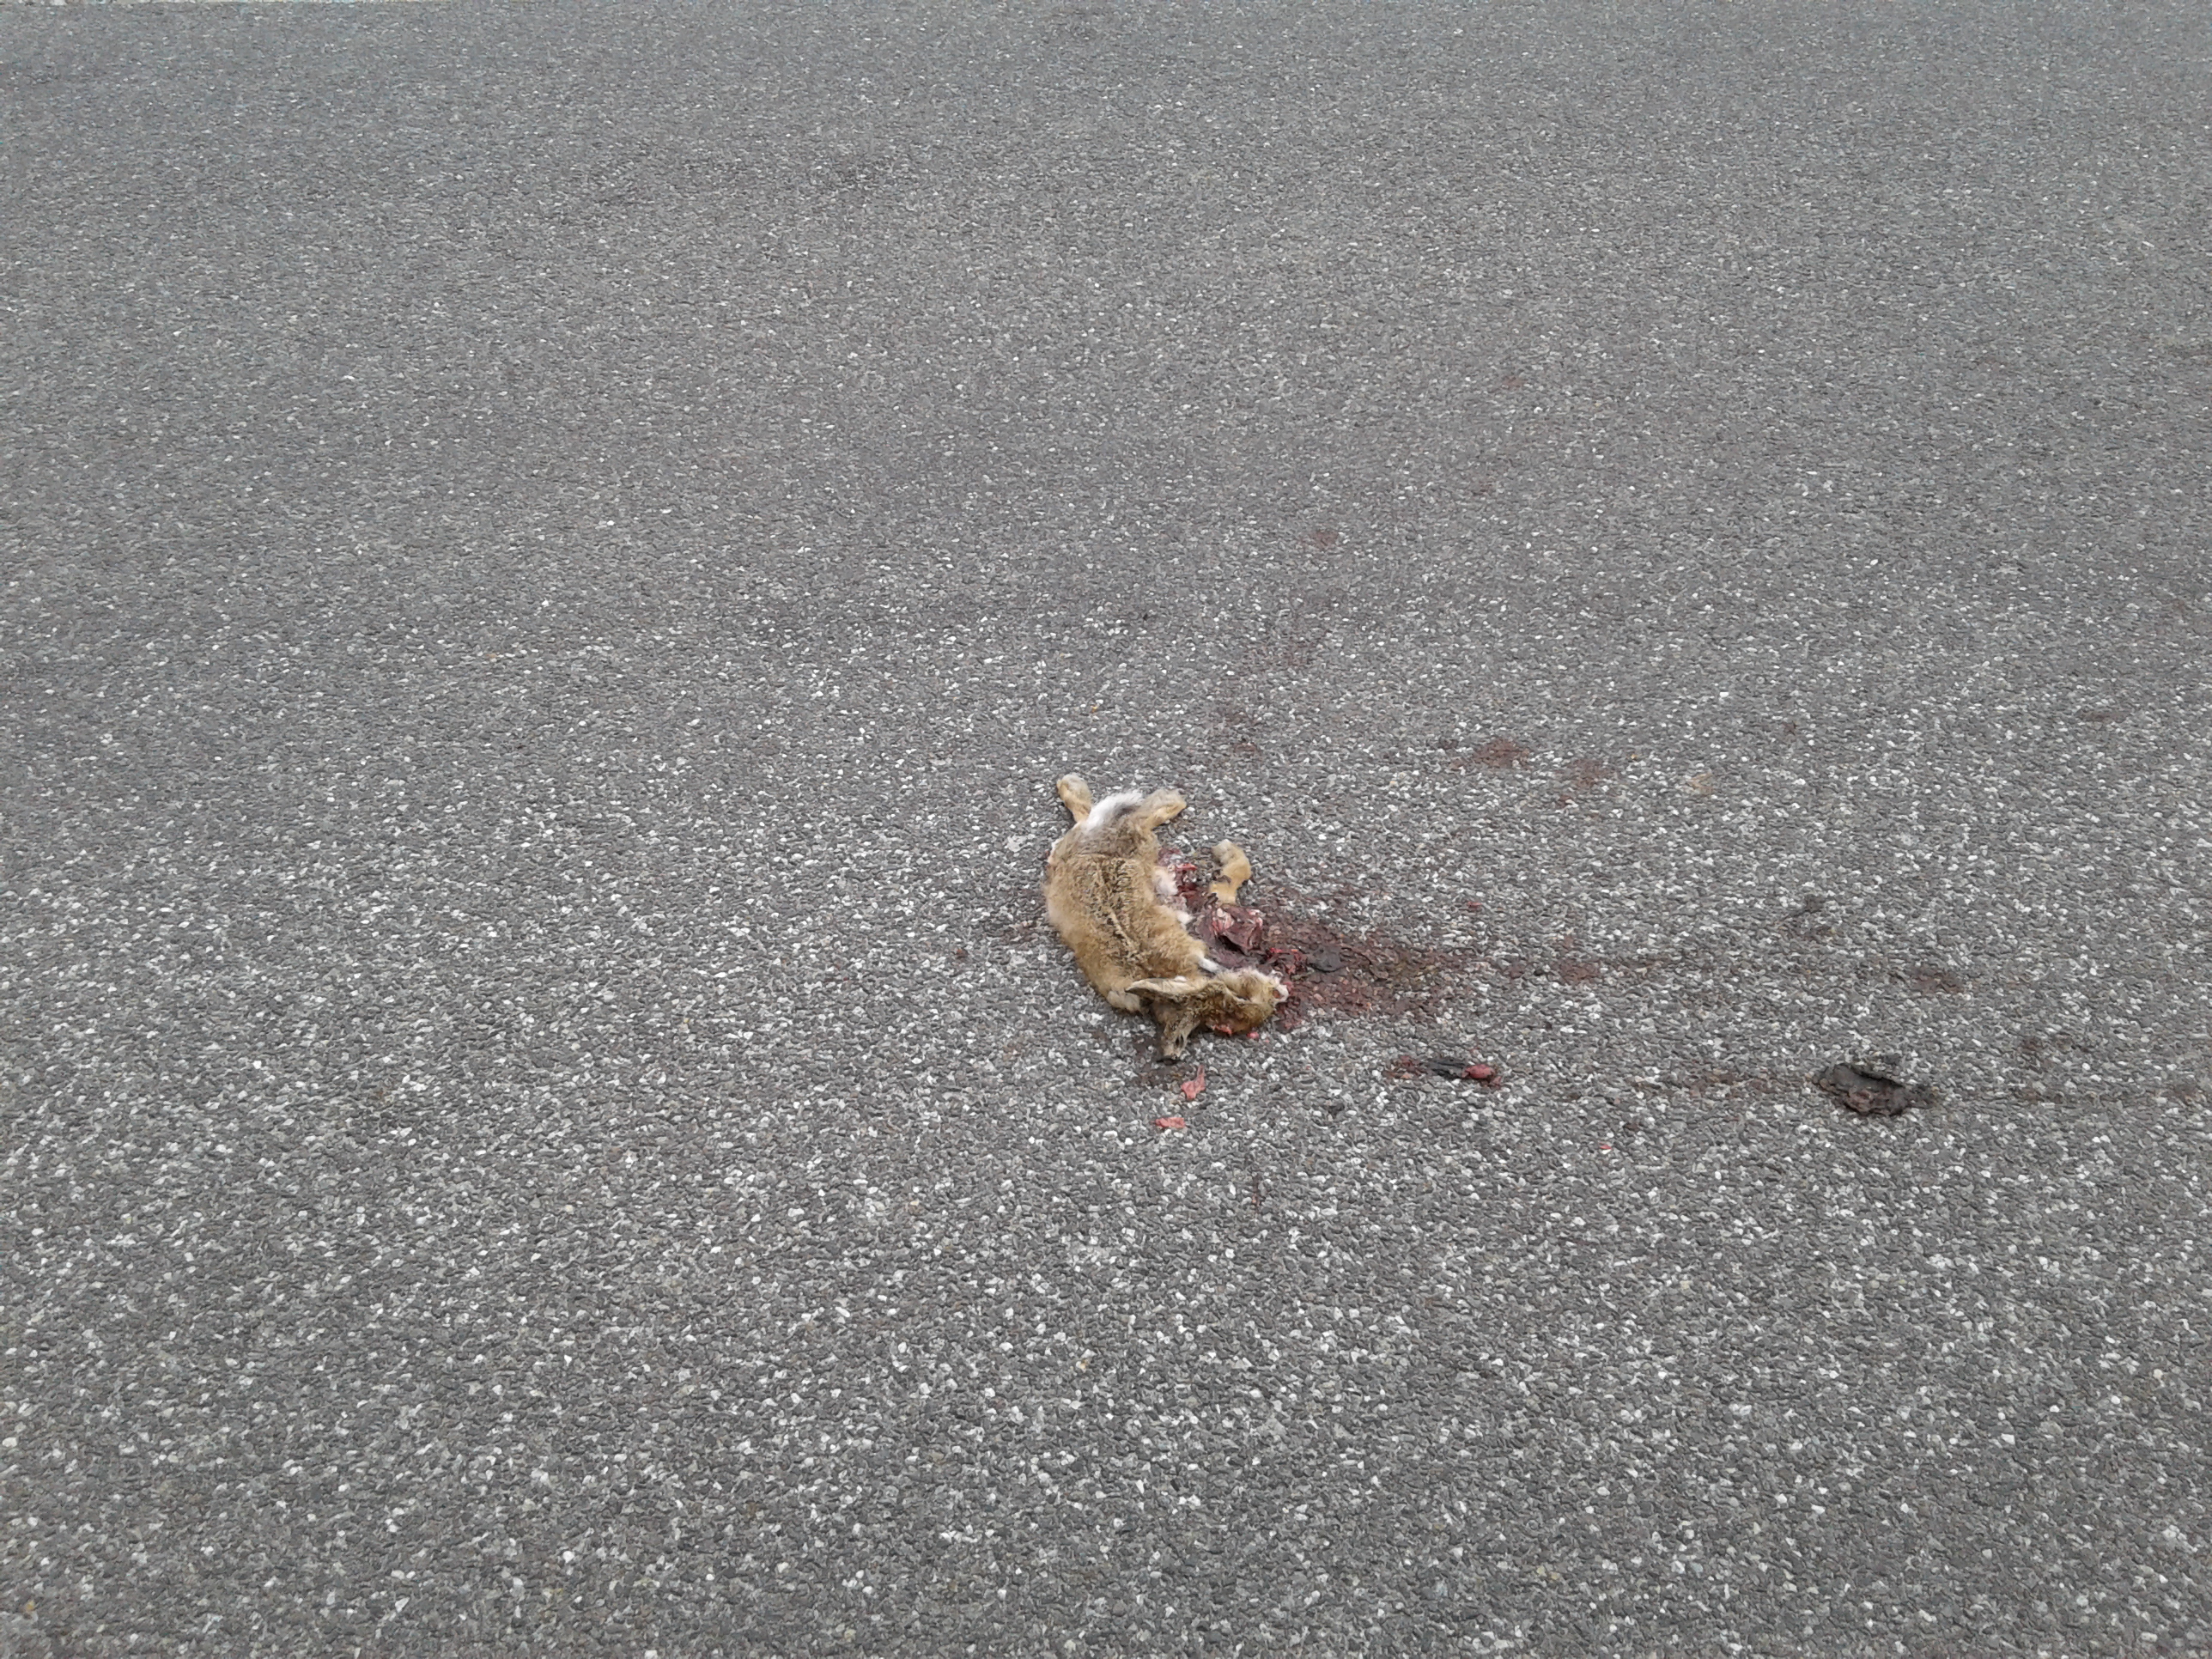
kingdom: Animalia
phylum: Chordata
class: Mammalia
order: Lagomorpha
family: Leporidae
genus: Lepus
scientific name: Lepus europaeus
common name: European hare
